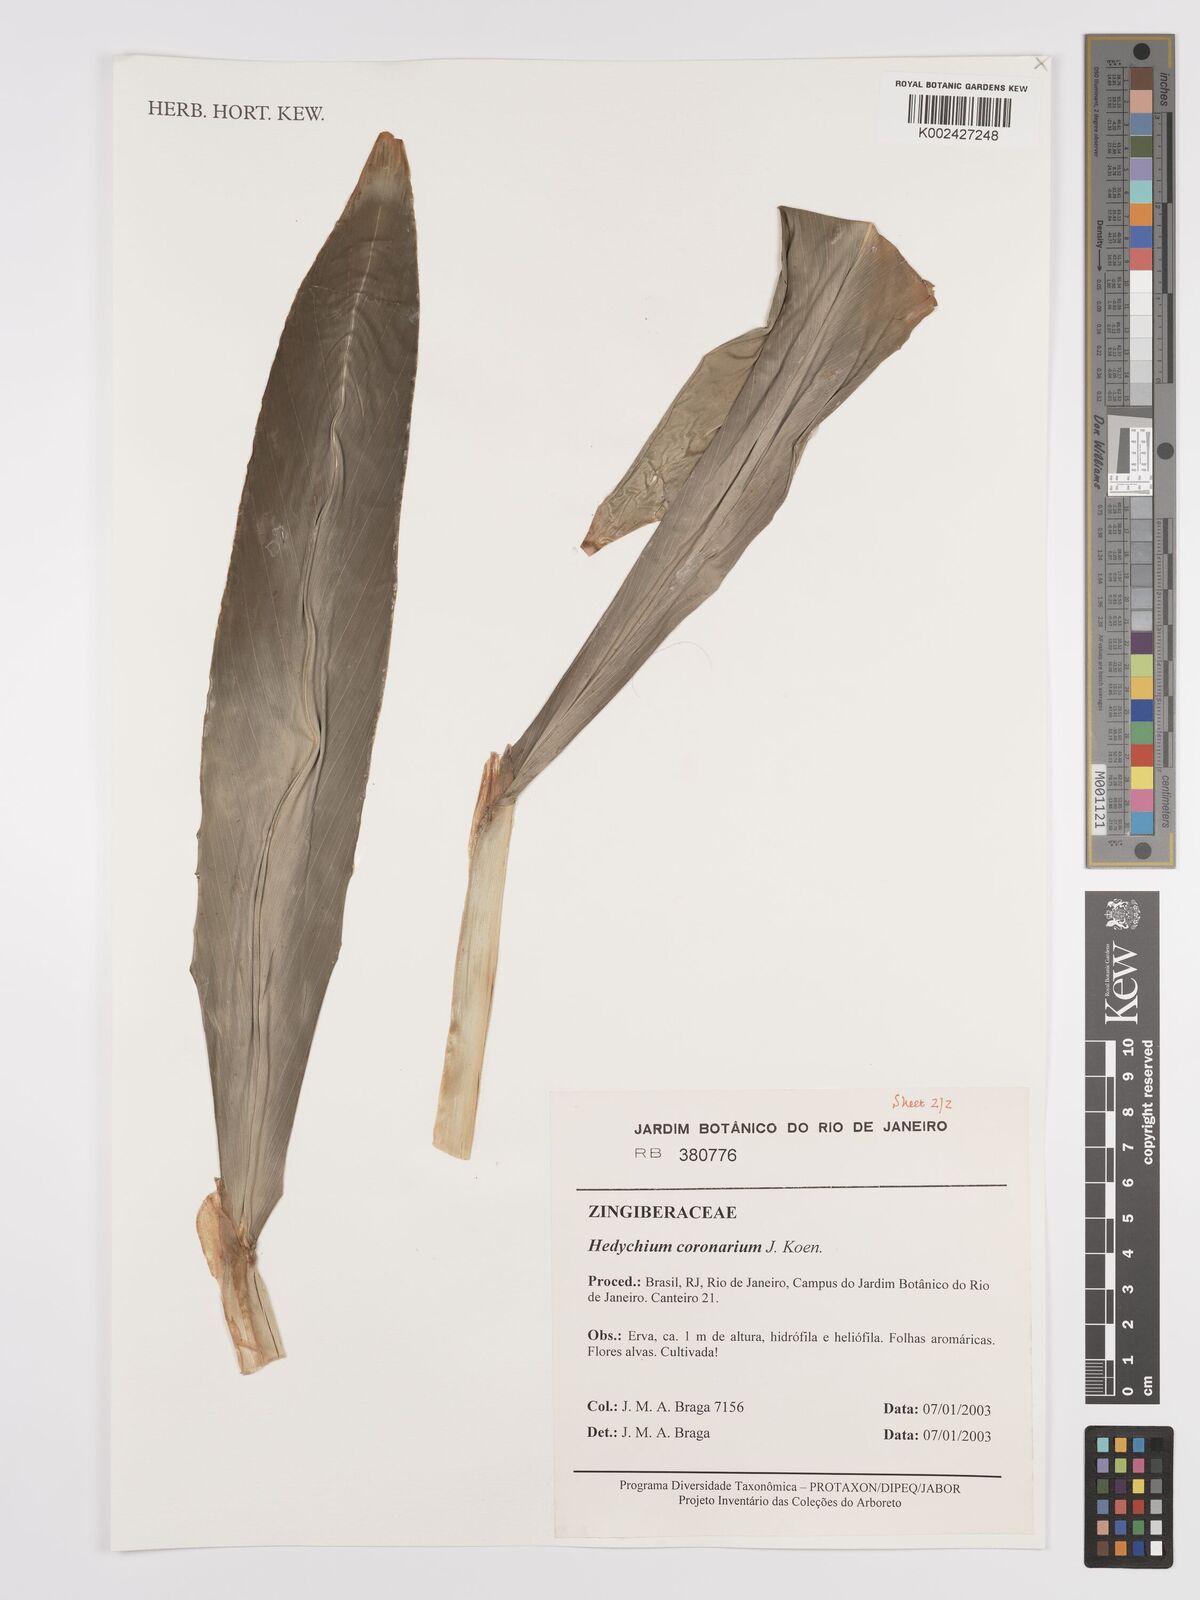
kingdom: Plantae
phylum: Tracheophyta
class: Liliopsida
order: Zingiberales
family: Zingiberaceae
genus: Hedychium
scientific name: Hedychium coronarium
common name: White garland-lily
